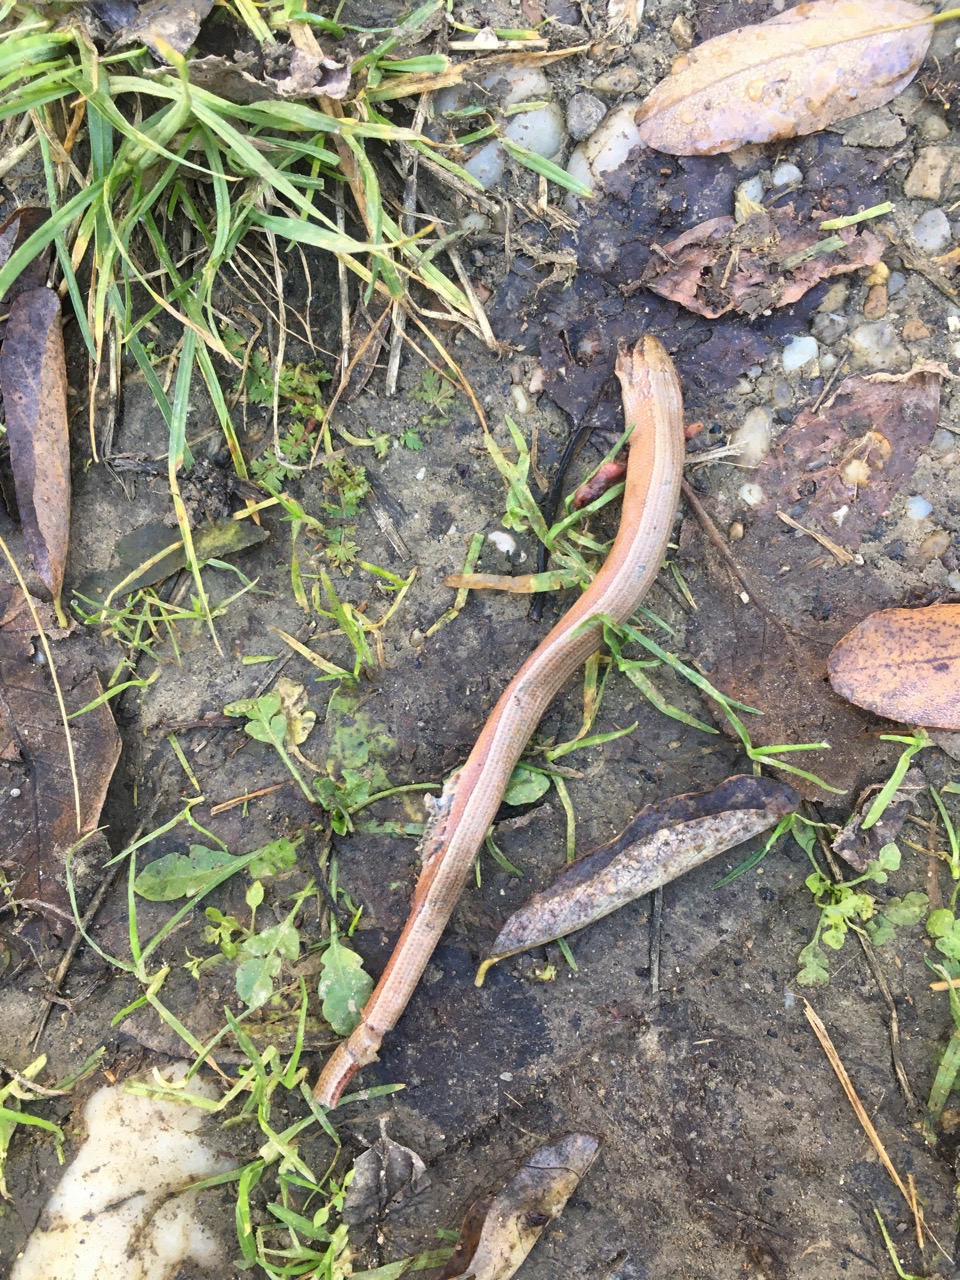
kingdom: Animalia
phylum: Chordata
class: Squamata
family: Anguidae
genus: Anguis
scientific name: Anguis fragilis
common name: Slow worm
